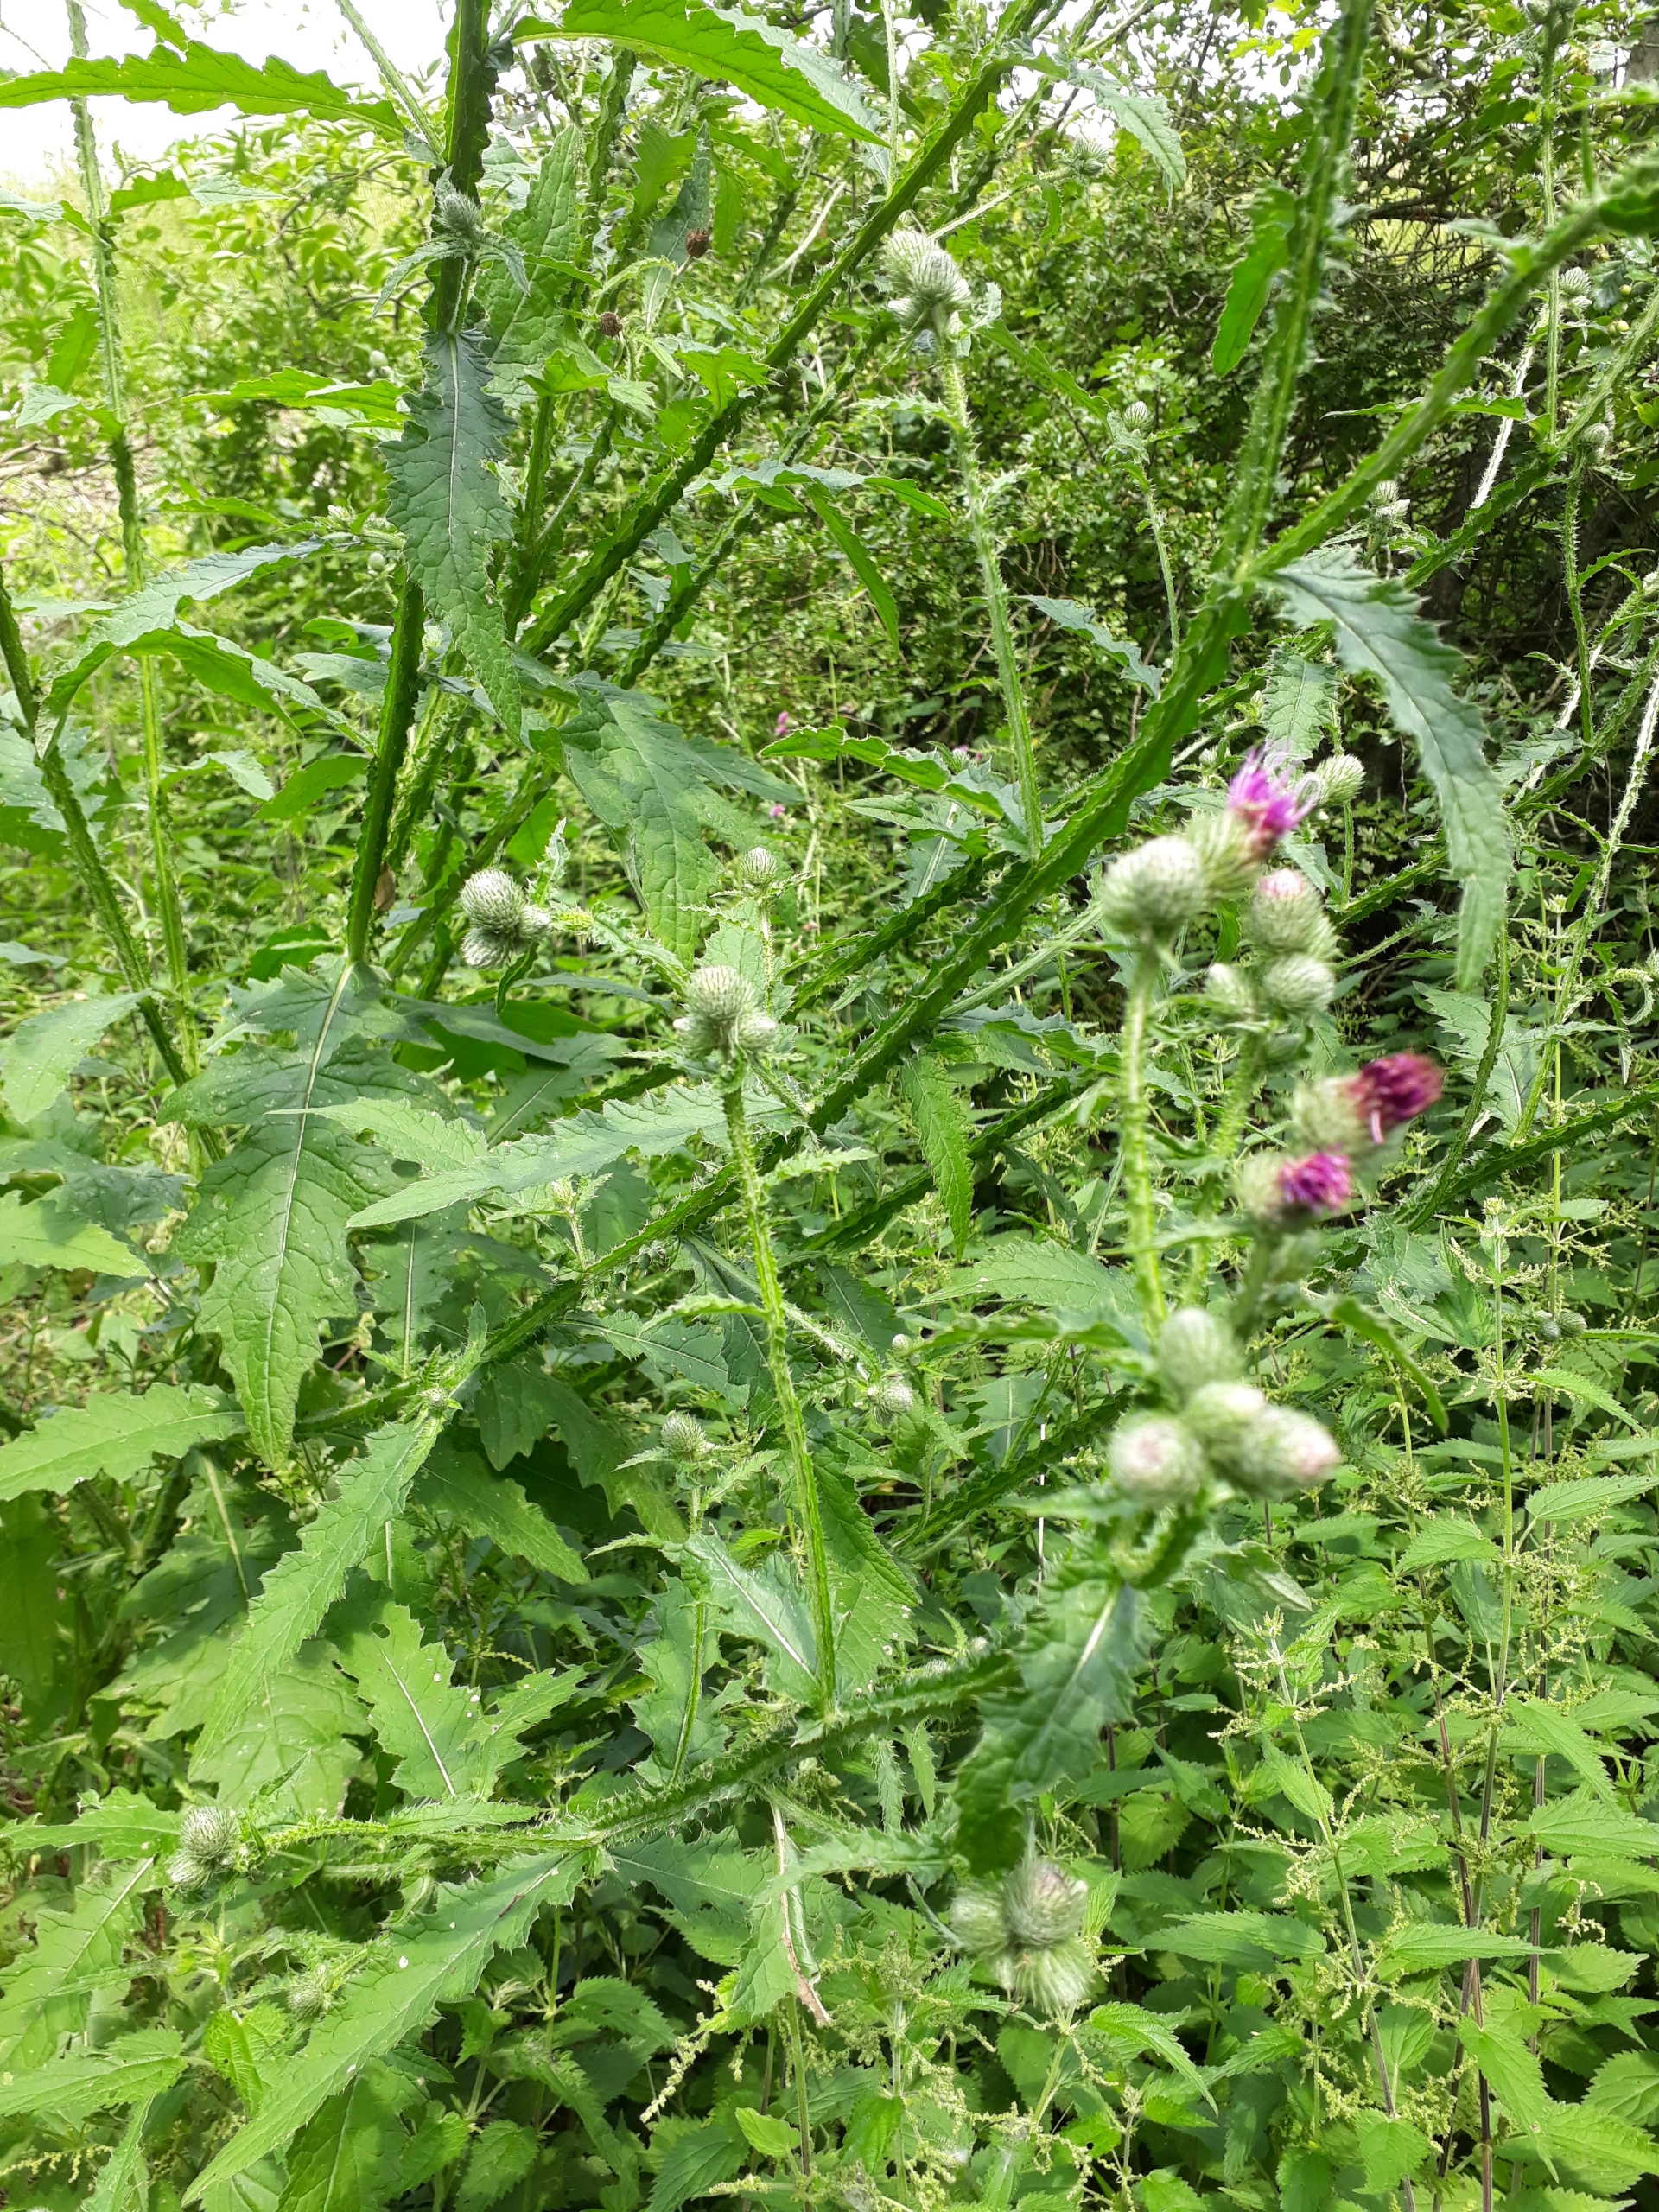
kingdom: Plantae
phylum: Tracheophyta
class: Magnoliopsida
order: Asterales
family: Asteraceae
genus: Carduus
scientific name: Carduus crispus
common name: Kruset tidsel
